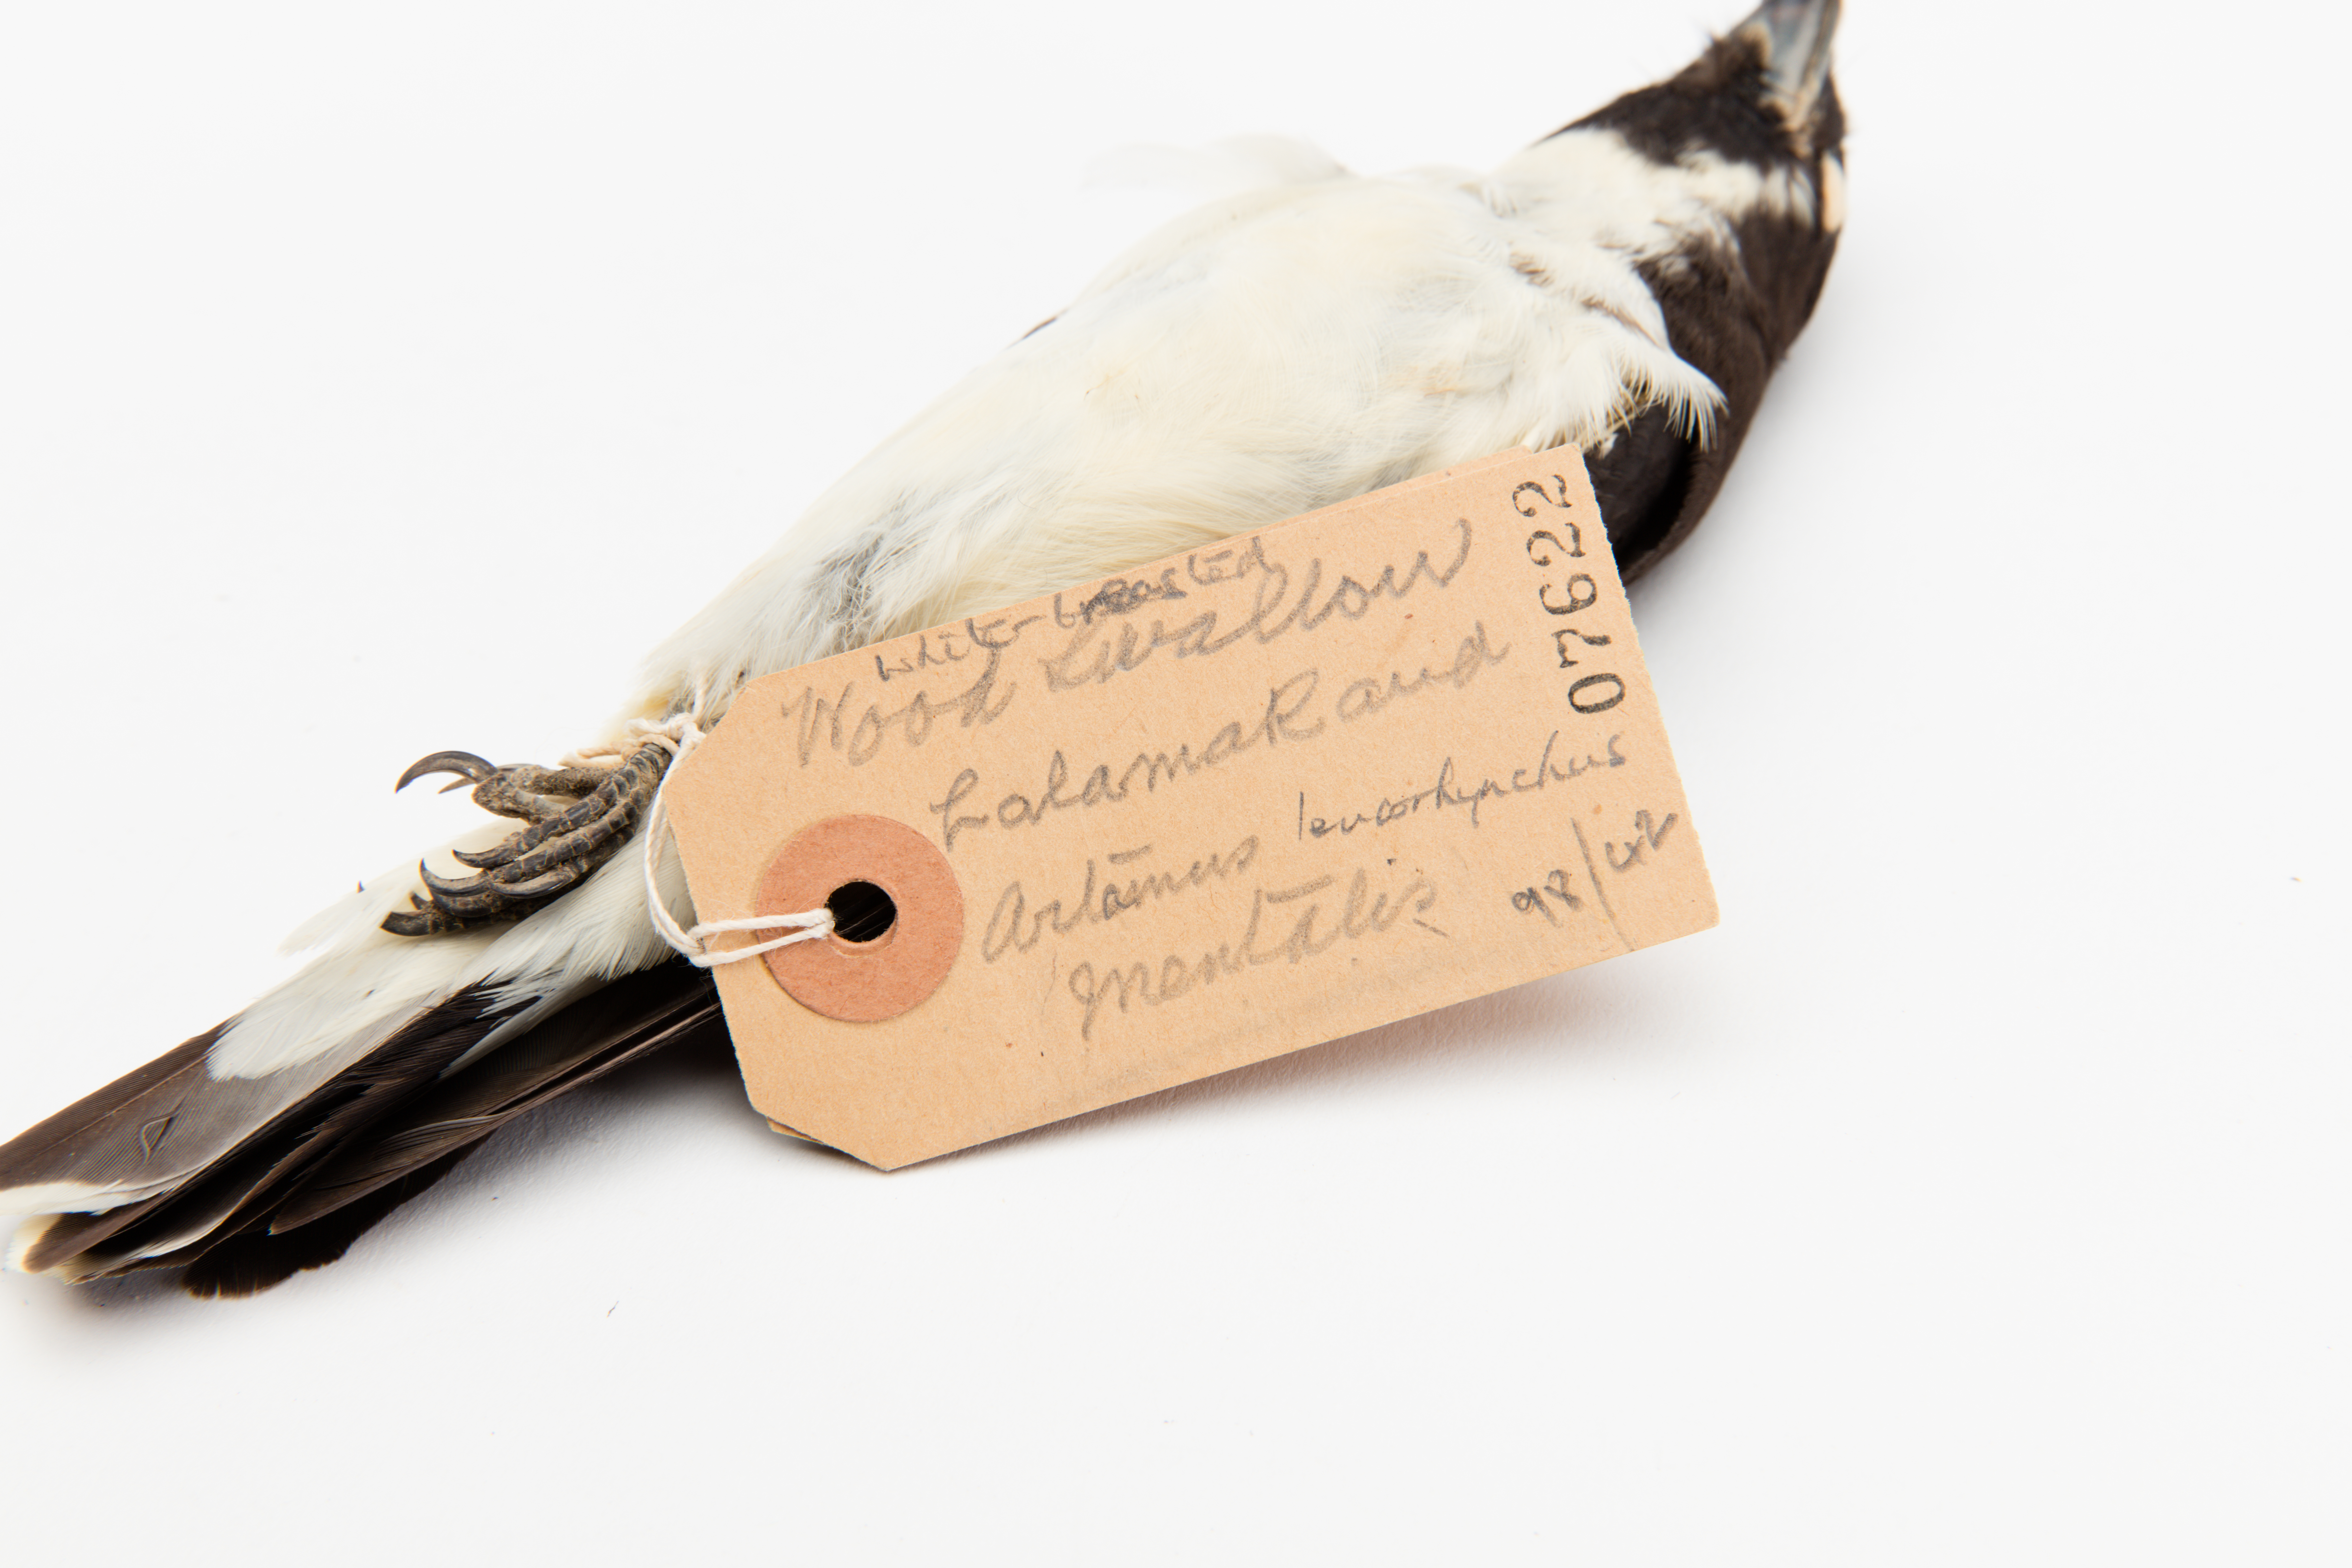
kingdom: Animalia
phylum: Chordata
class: Aves
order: Passeriformes
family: Artamidae
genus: Artamus
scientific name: Artamus leucoryn
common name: White-breasted woodswallow
